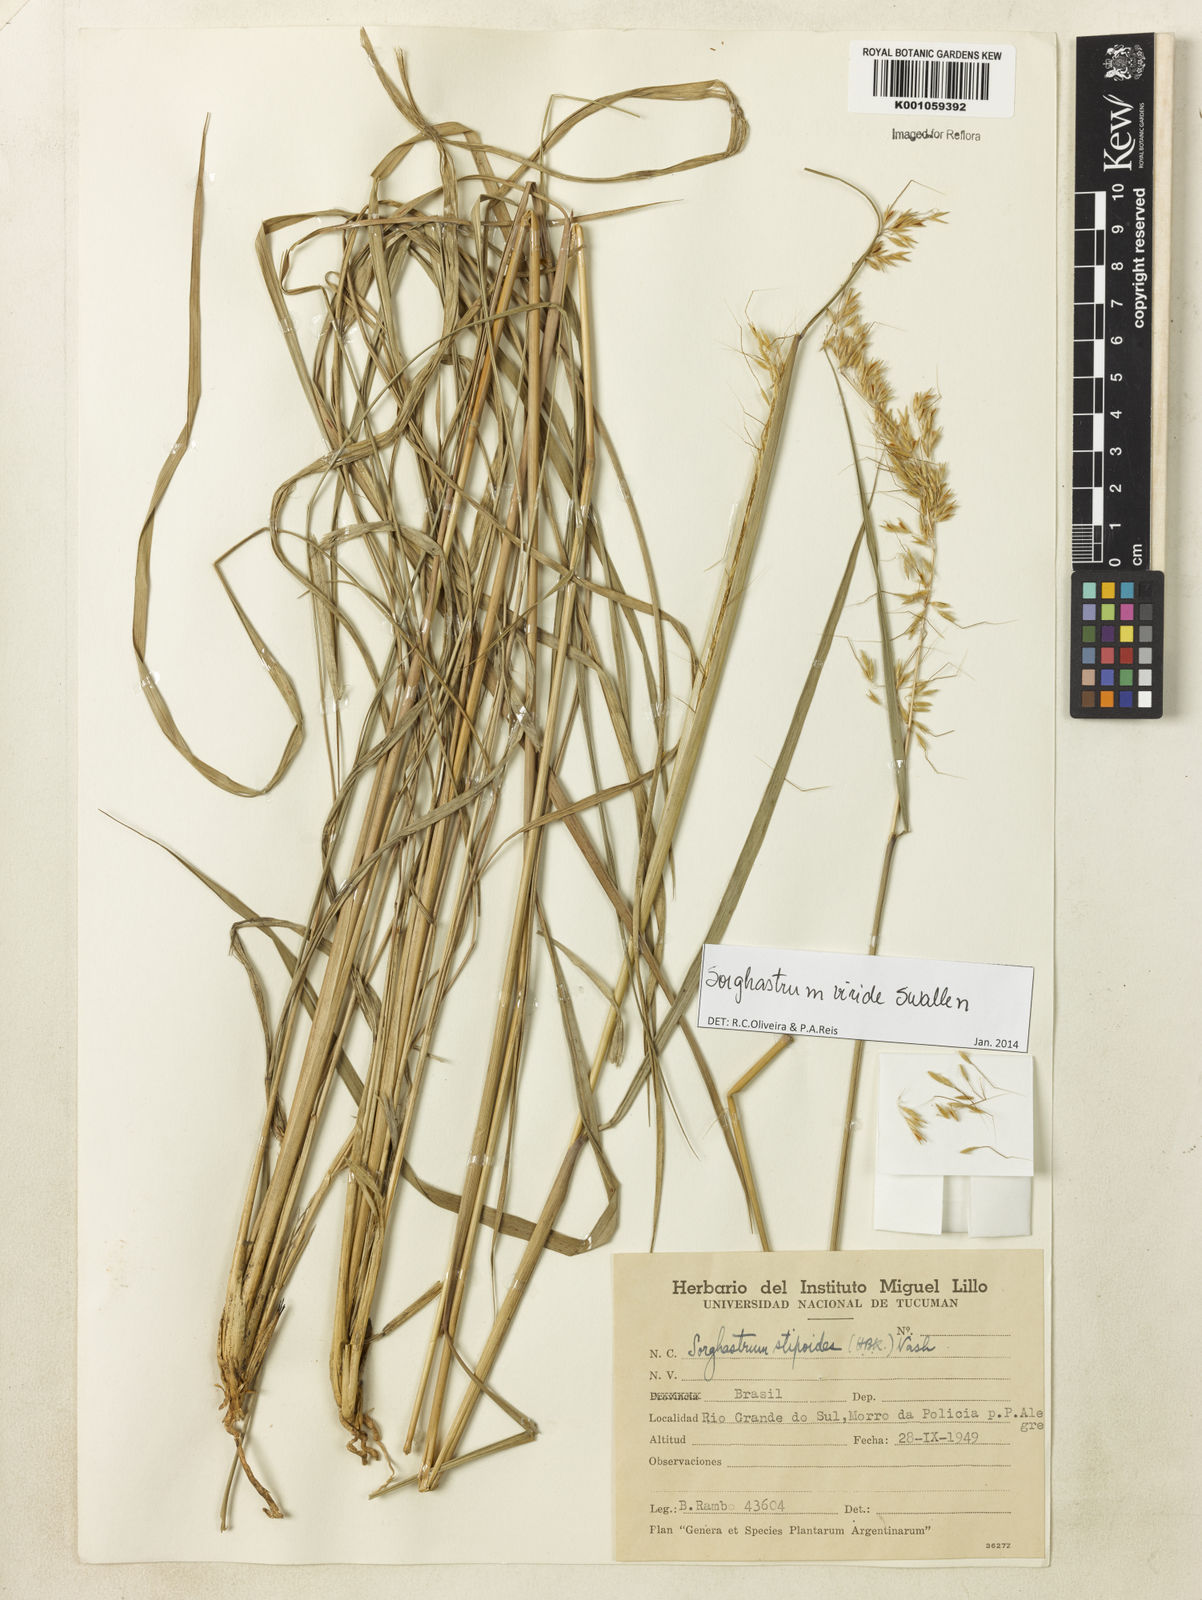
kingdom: Plantae
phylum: Tracheophyta
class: Liliopsida
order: Poales
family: Poaceae
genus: Sorghastrum
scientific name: Sorghastrum viride
